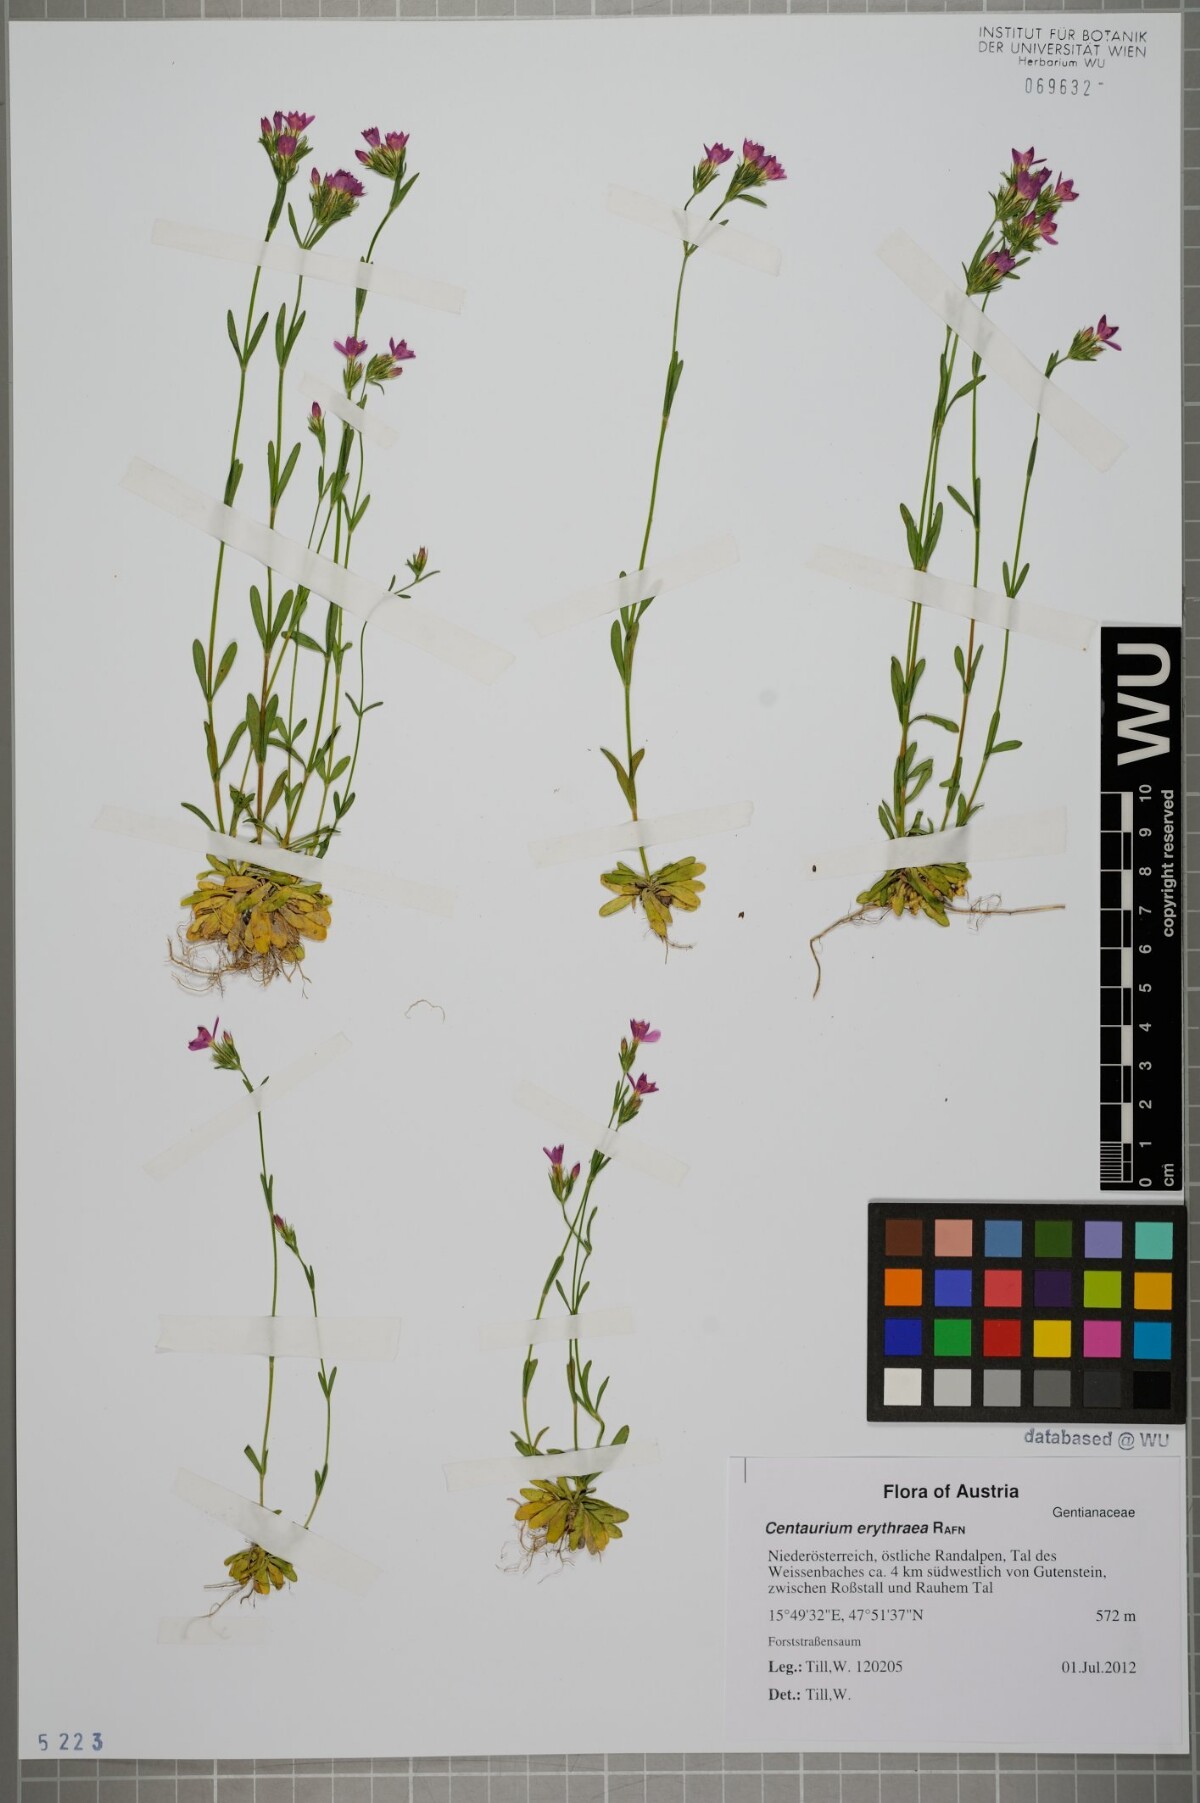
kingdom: Plantae
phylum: Tracheophyta
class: Magnoliopsida
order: Gentianales
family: Gentianaceae
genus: Centaurium
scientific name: Centaurium erythraea
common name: Common centaury
